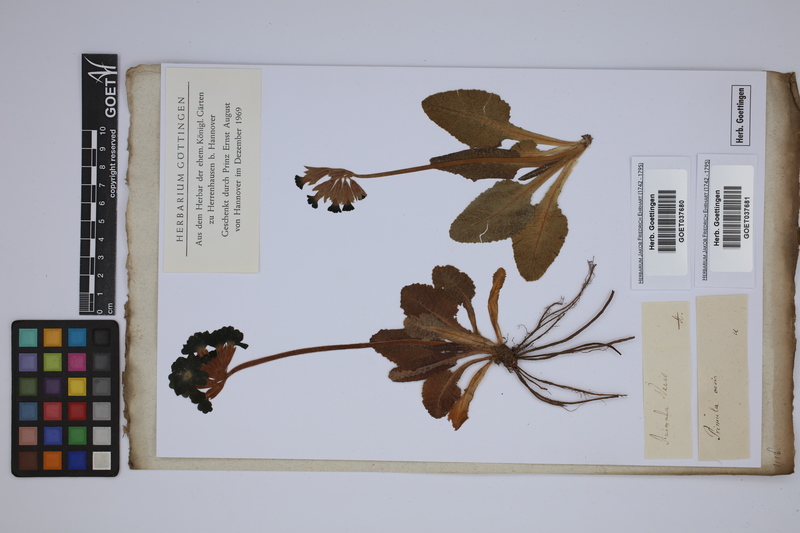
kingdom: Plantae
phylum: Tracheophyta
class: Magnoliopsida
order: Ericales
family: Primulaceae
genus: Primula
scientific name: Primula veris
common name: Cowslip
